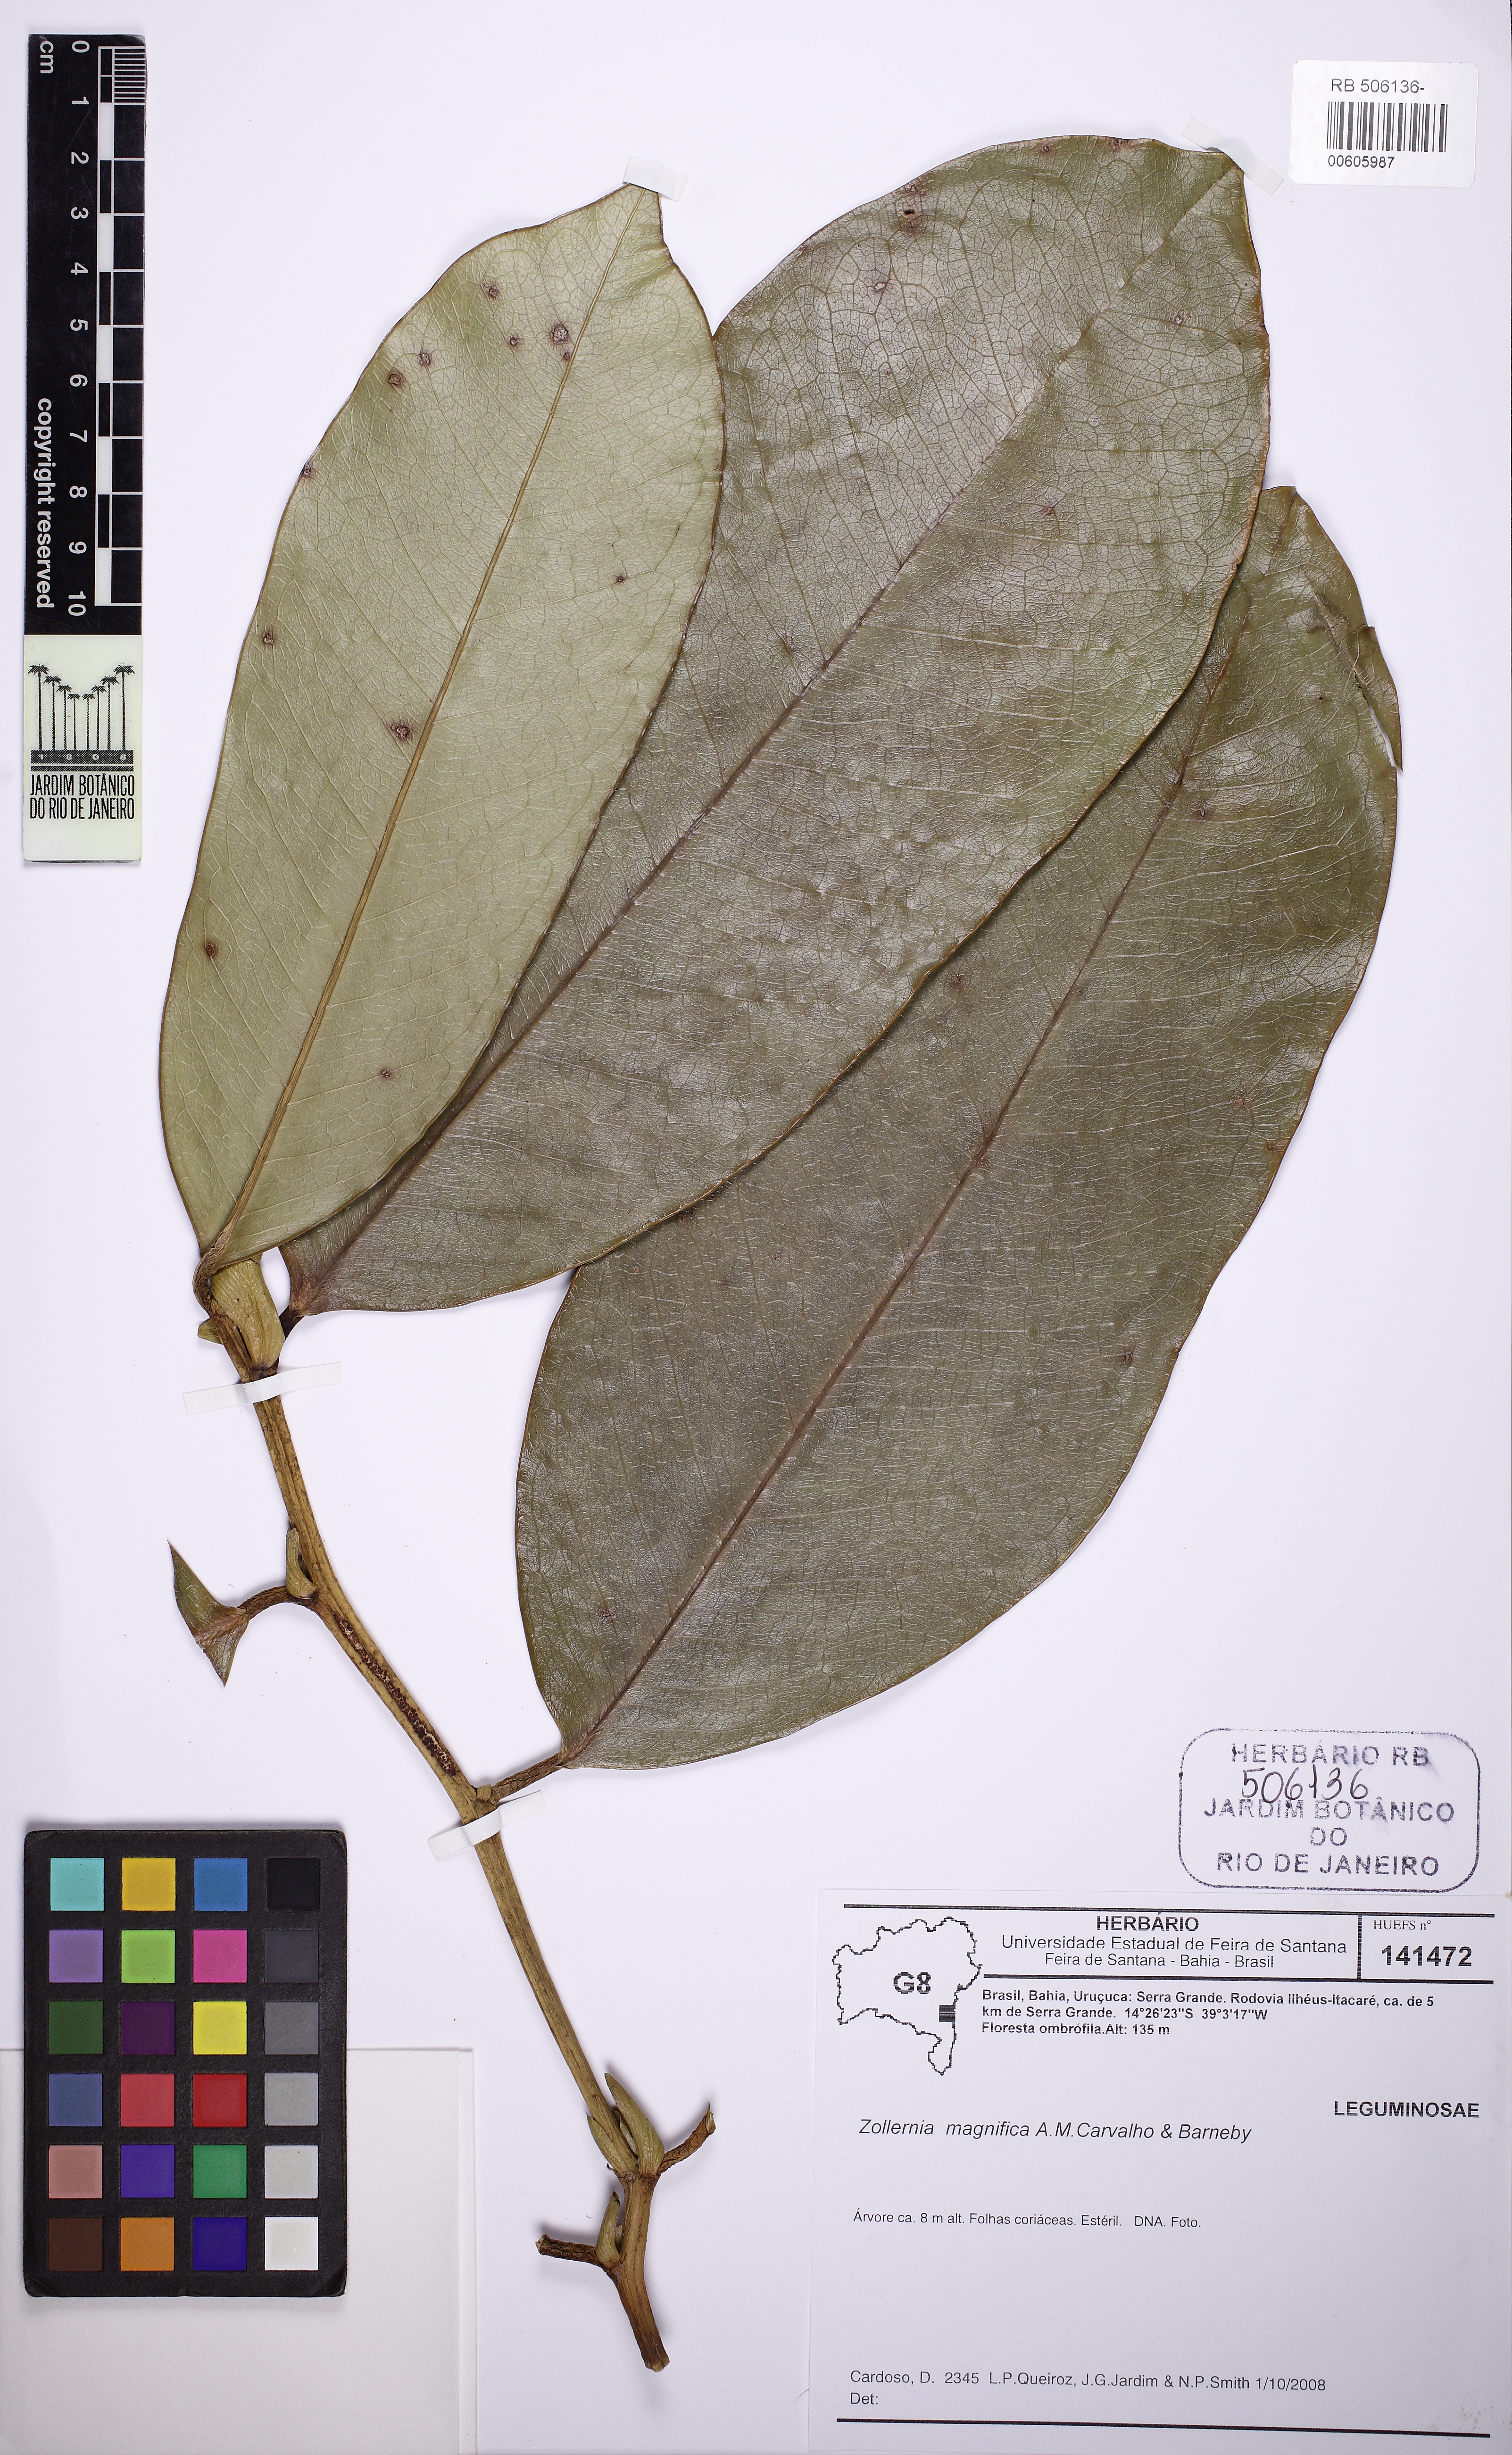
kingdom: Plantae
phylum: Tracheophyta
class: Magnoliopsida
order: Fabales
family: Fabaceae
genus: Zollernia
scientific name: Zollernia magnifica
